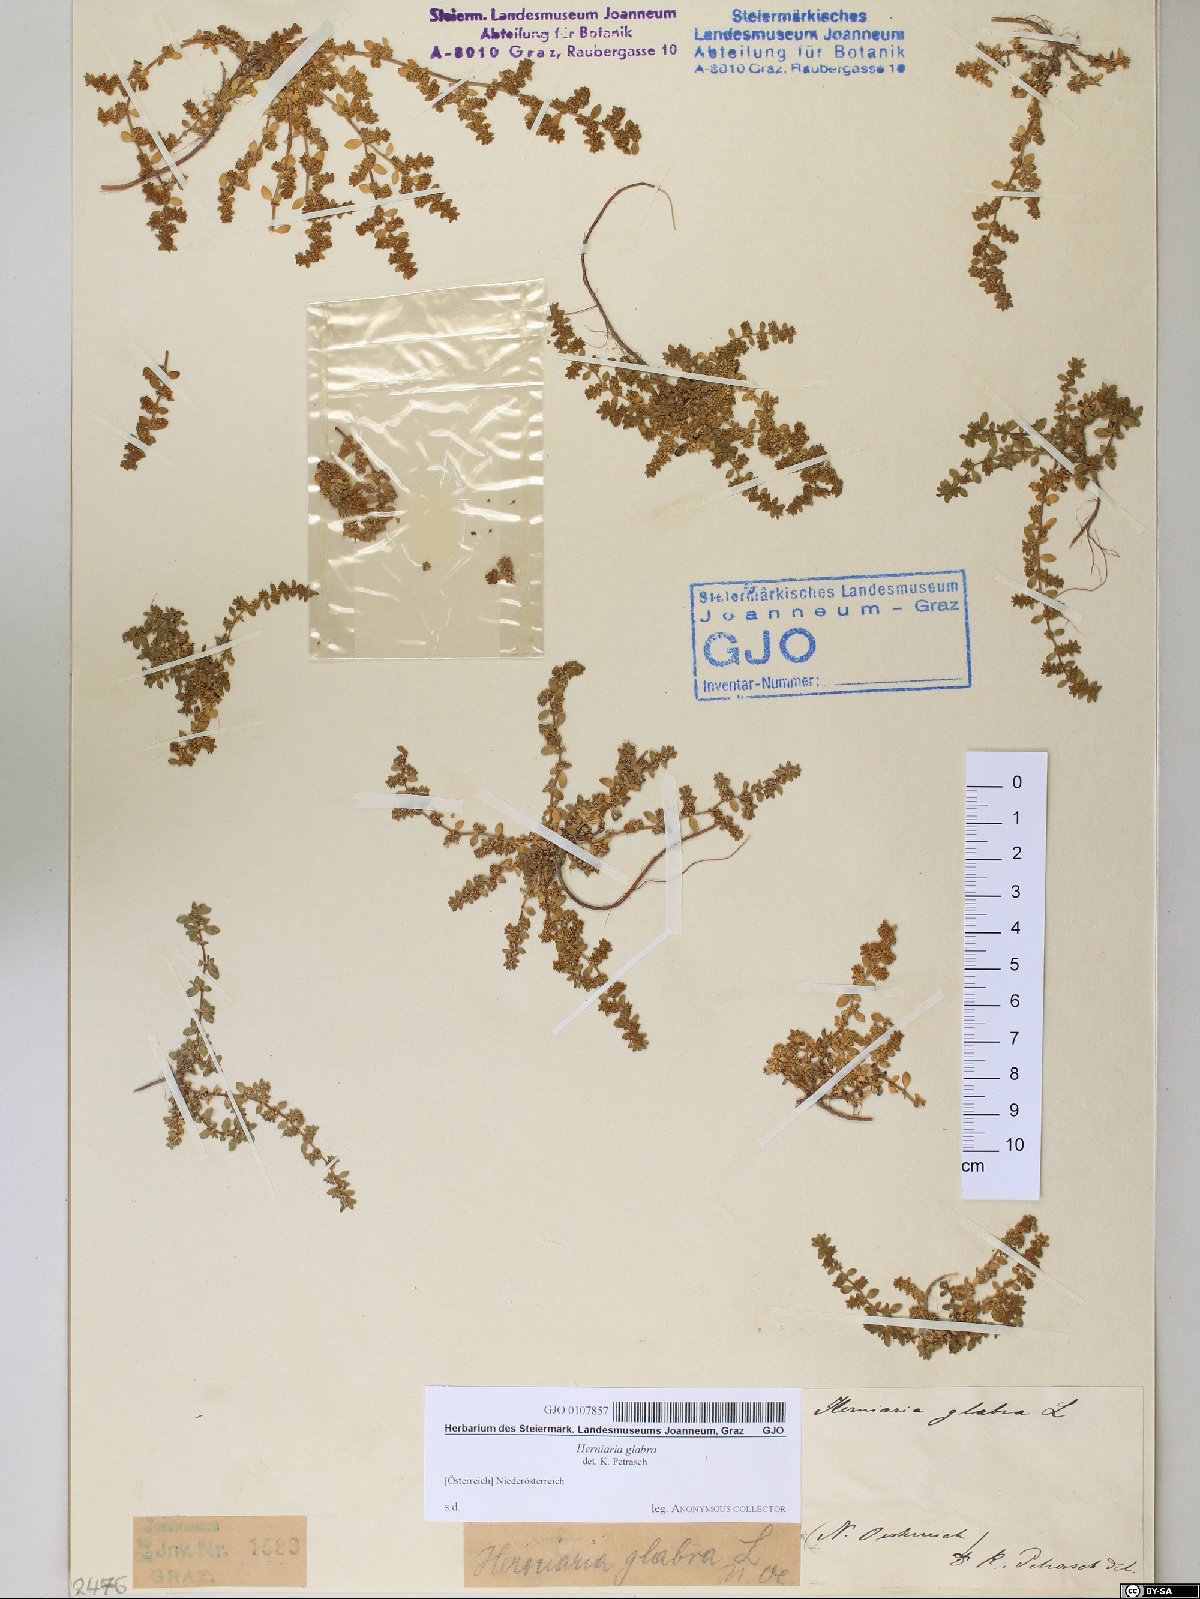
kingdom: Plantae
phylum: Tracheophyta
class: Magnoliopsida
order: Caryophyllales
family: Caryophyllaceae
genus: Herniaria
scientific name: Herniaria glabra
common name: Smooth rupturewort
